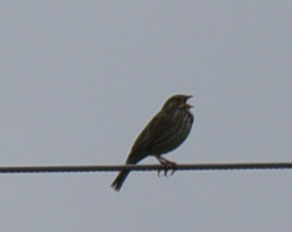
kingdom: Animalia
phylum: Chordata
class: Aves
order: Passeriformes
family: Alaudidae
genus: Lullula
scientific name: Lullula arborea
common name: Woodlark
